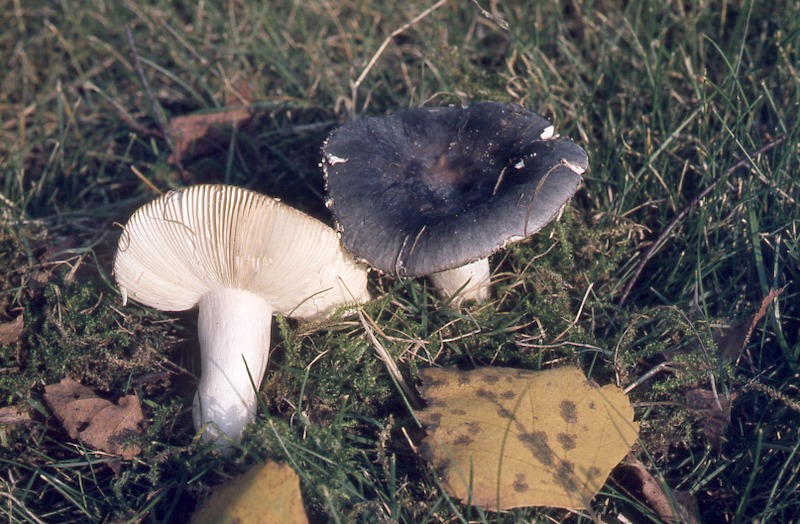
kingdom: Fungi
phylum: Basidiomycota
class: Agaricomycetes
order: Russulales
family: Russulaceae
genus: Russula
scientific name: Russula ionochlora
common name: Marbled brittlegill
